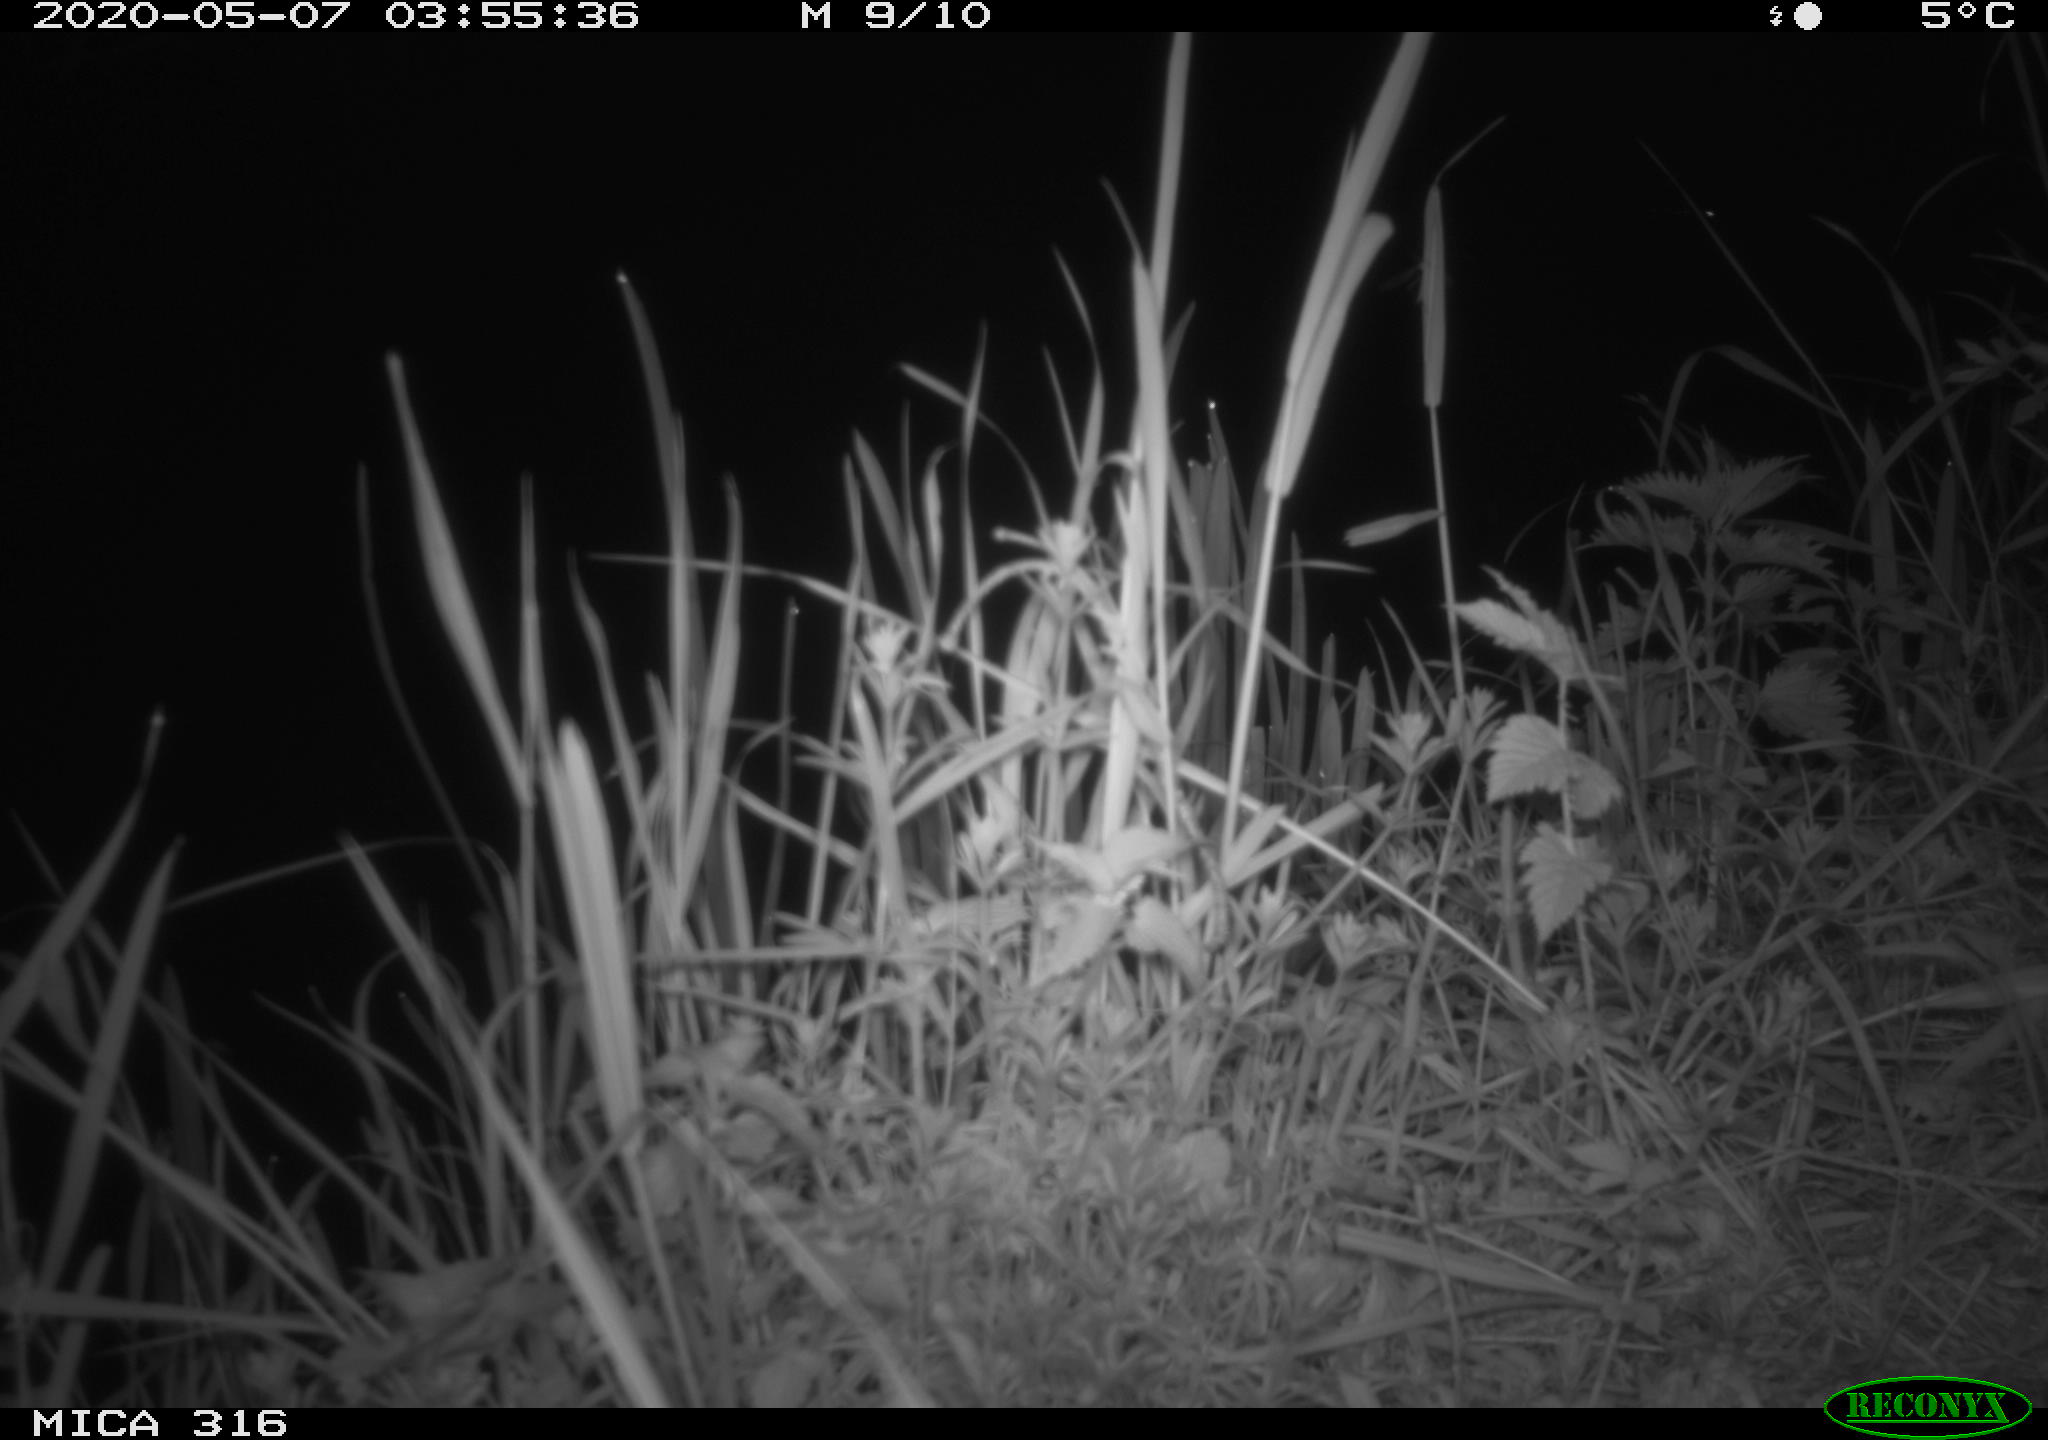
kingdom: Animalia
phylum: Chordata
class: Aves
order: Anseriformes
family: Anatidae
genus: Anas
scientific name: Anas platyrhynchos
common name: Mallard
